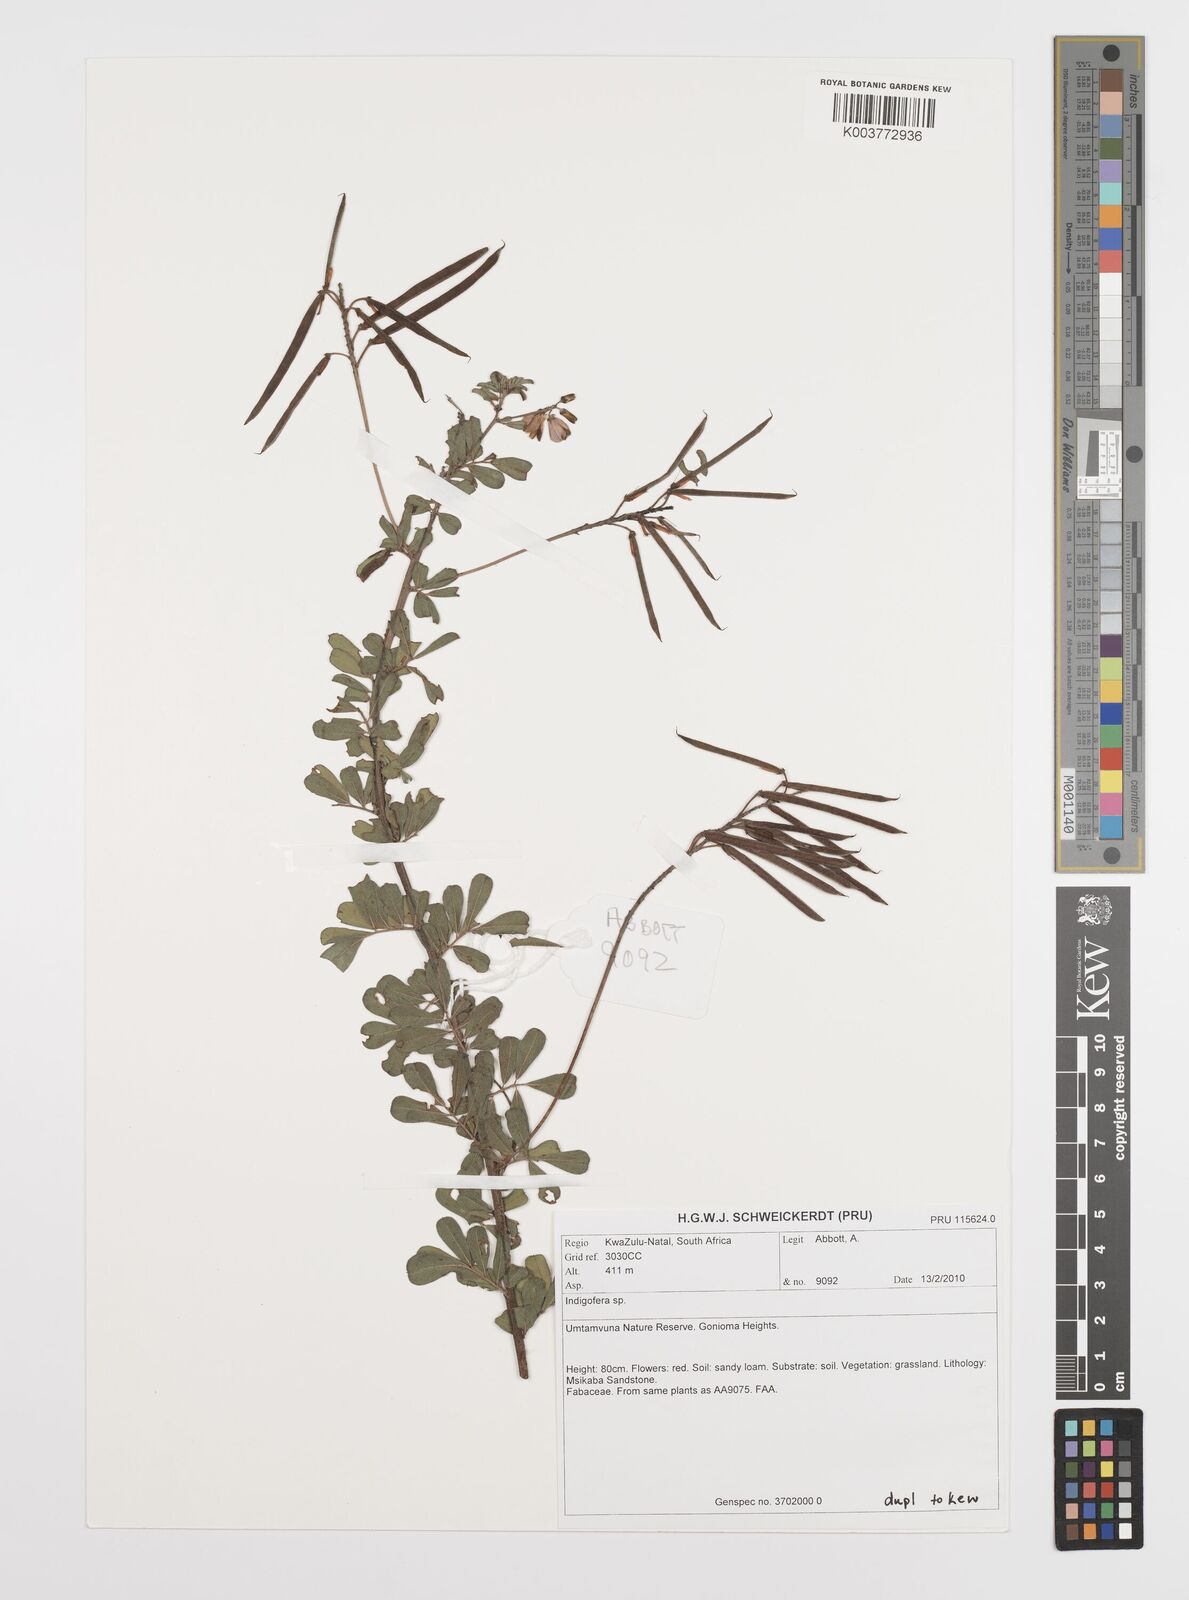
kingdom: Plantae
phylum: Tracheophyta
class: Magnoliopsida
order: Fabales
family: Fabaceae
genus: Indigofera
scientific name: Indigofera
